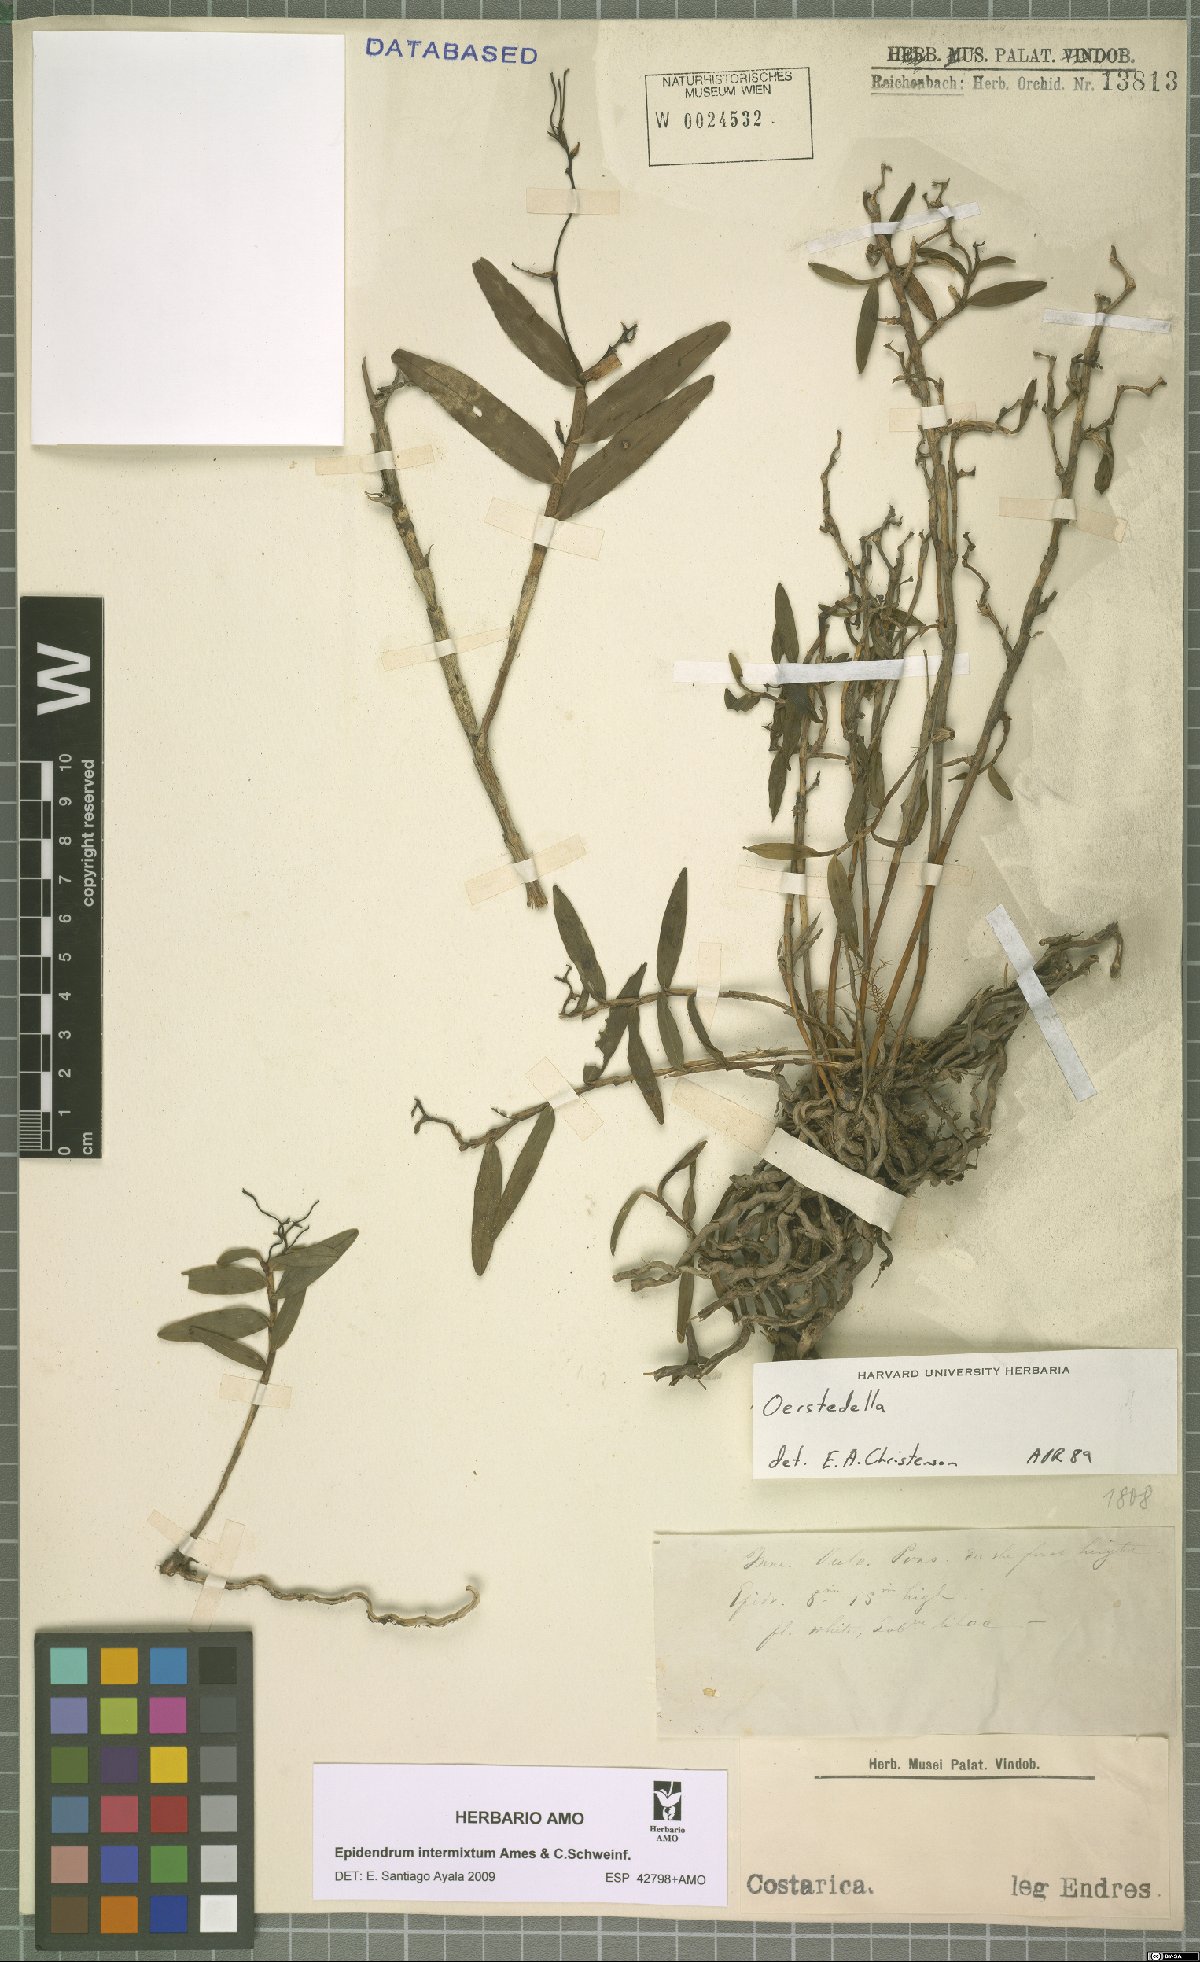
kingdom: Plantae
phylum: Tracheophyta
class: Liliopsida
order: Asparagales
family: Orchidaceae
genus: Epidendrum
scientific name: Epidendrum intermixtum
